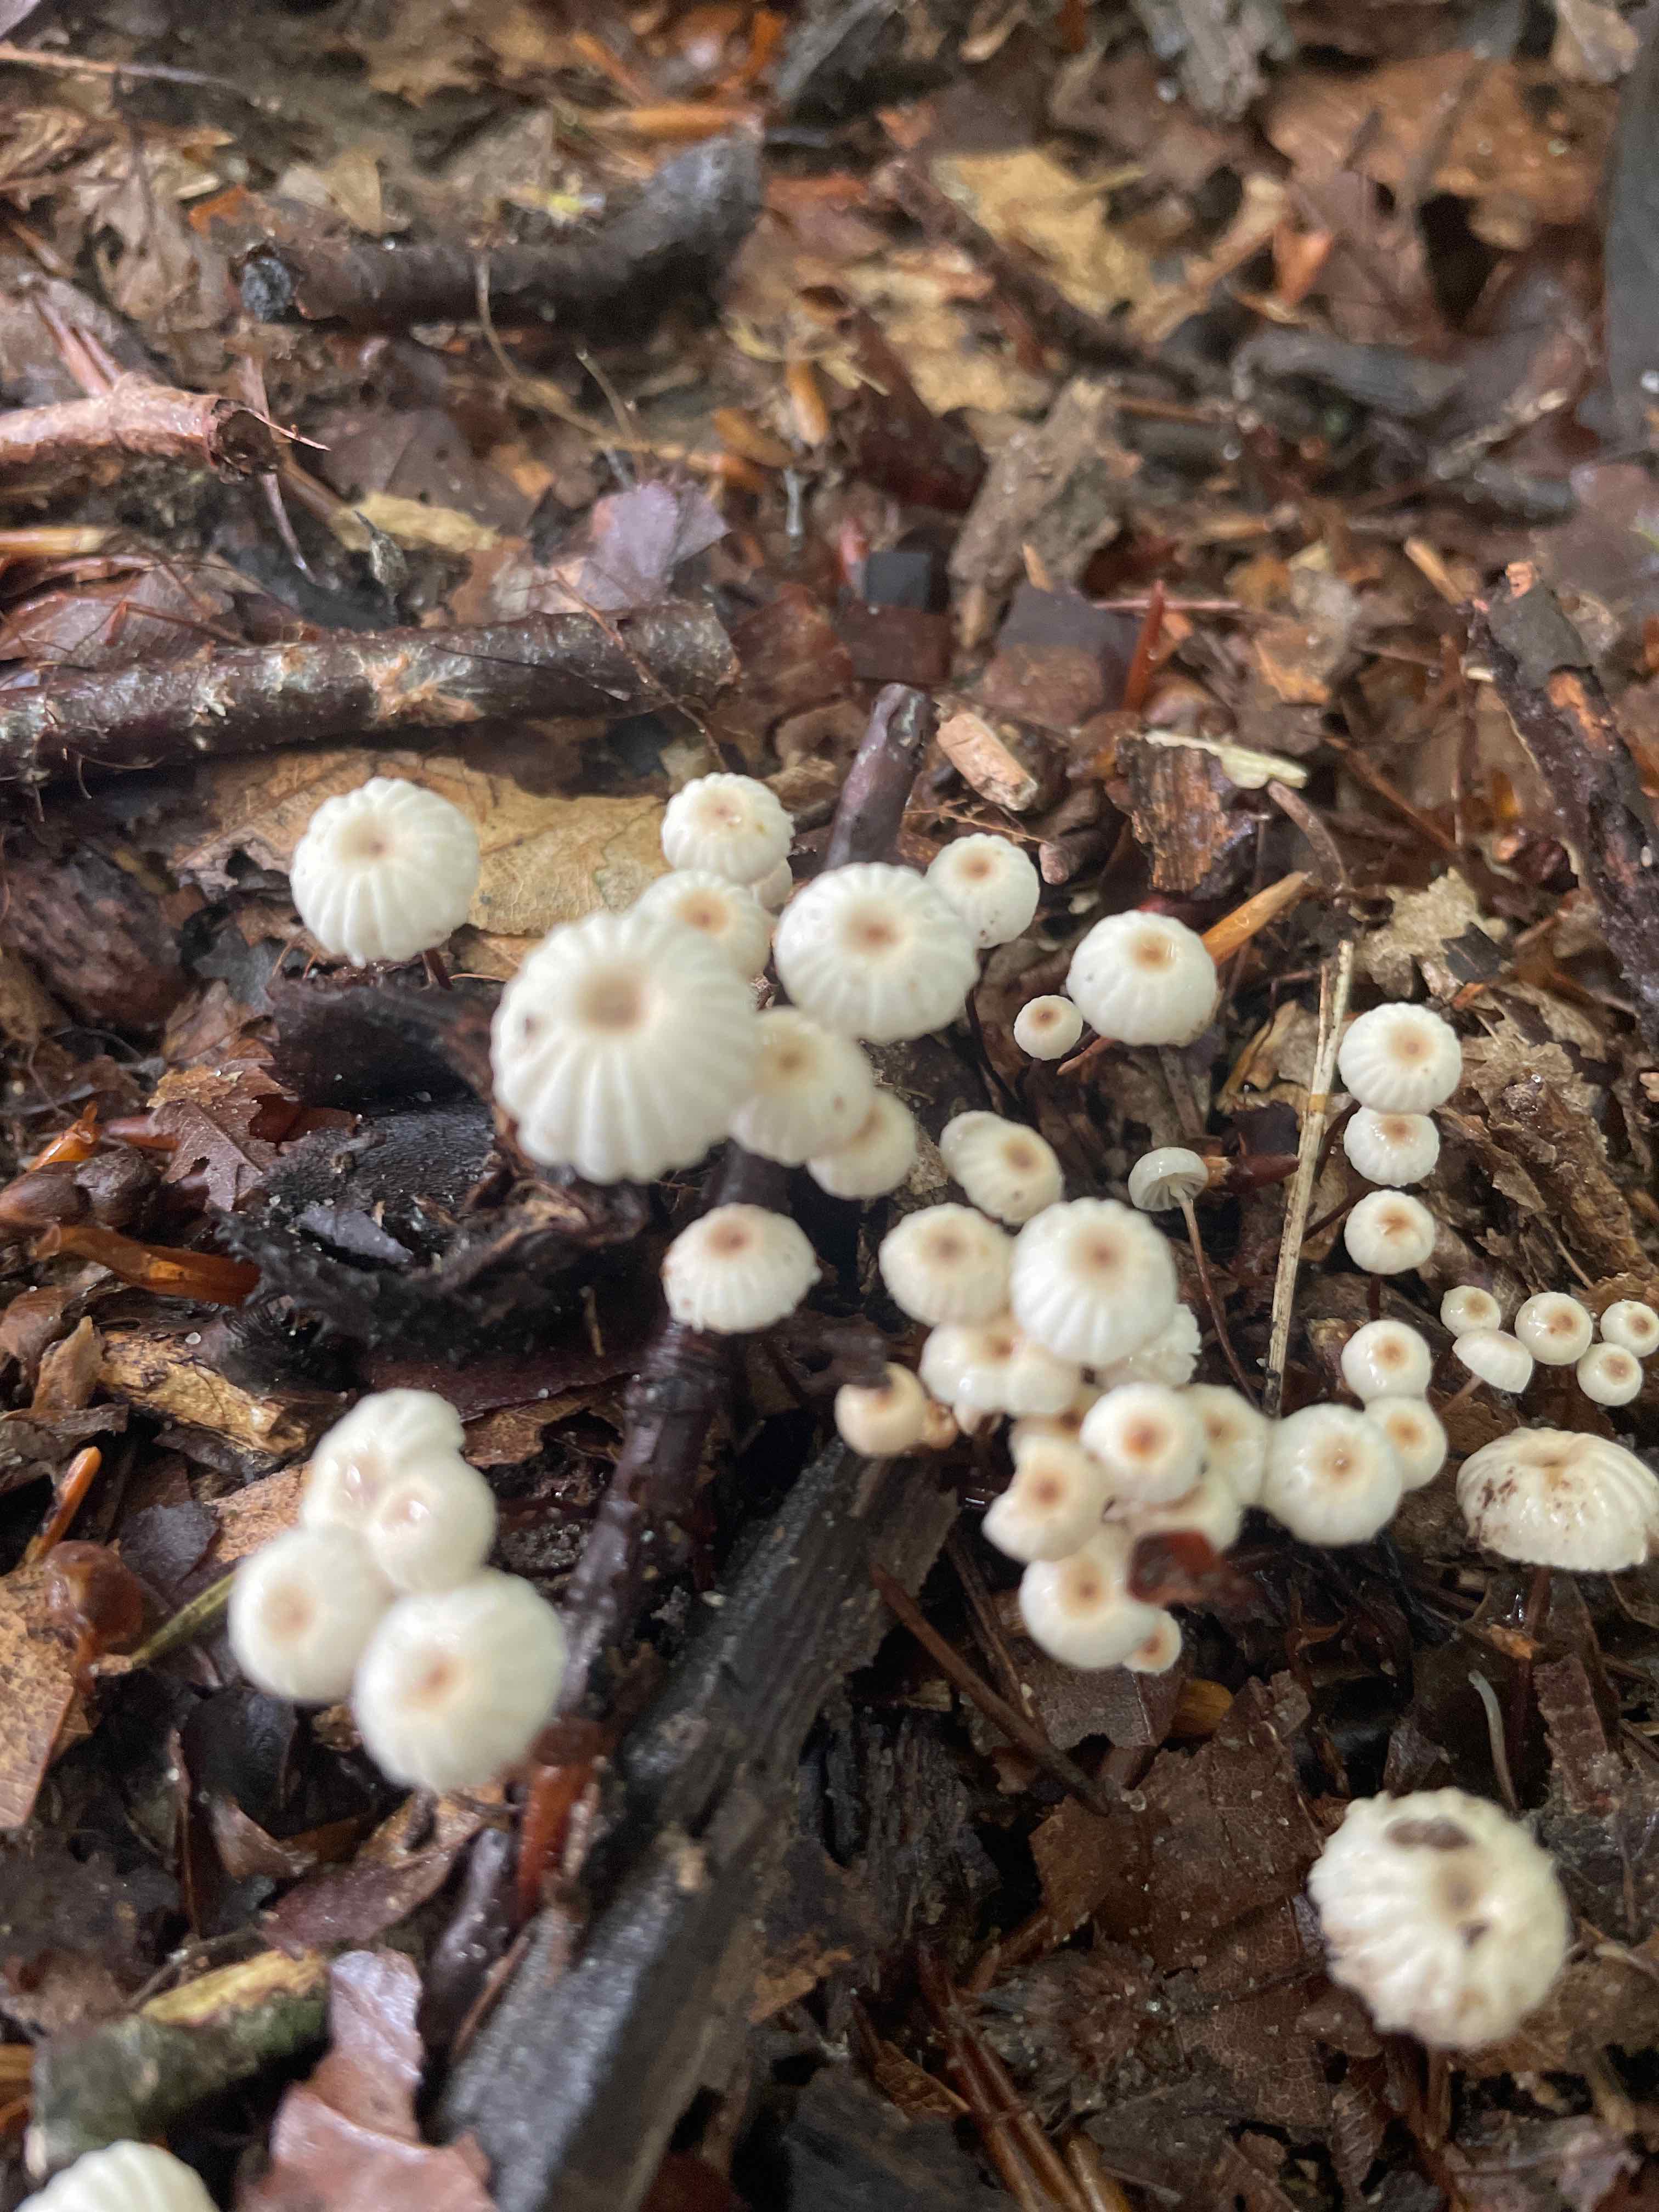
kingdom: Fungi
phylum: Basidiomycota
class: Agaricomycetes
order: Agaricales
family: Marasmiaceae
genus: Marasmius
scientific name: Marasmius rotula
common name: hjul-bruskhat
